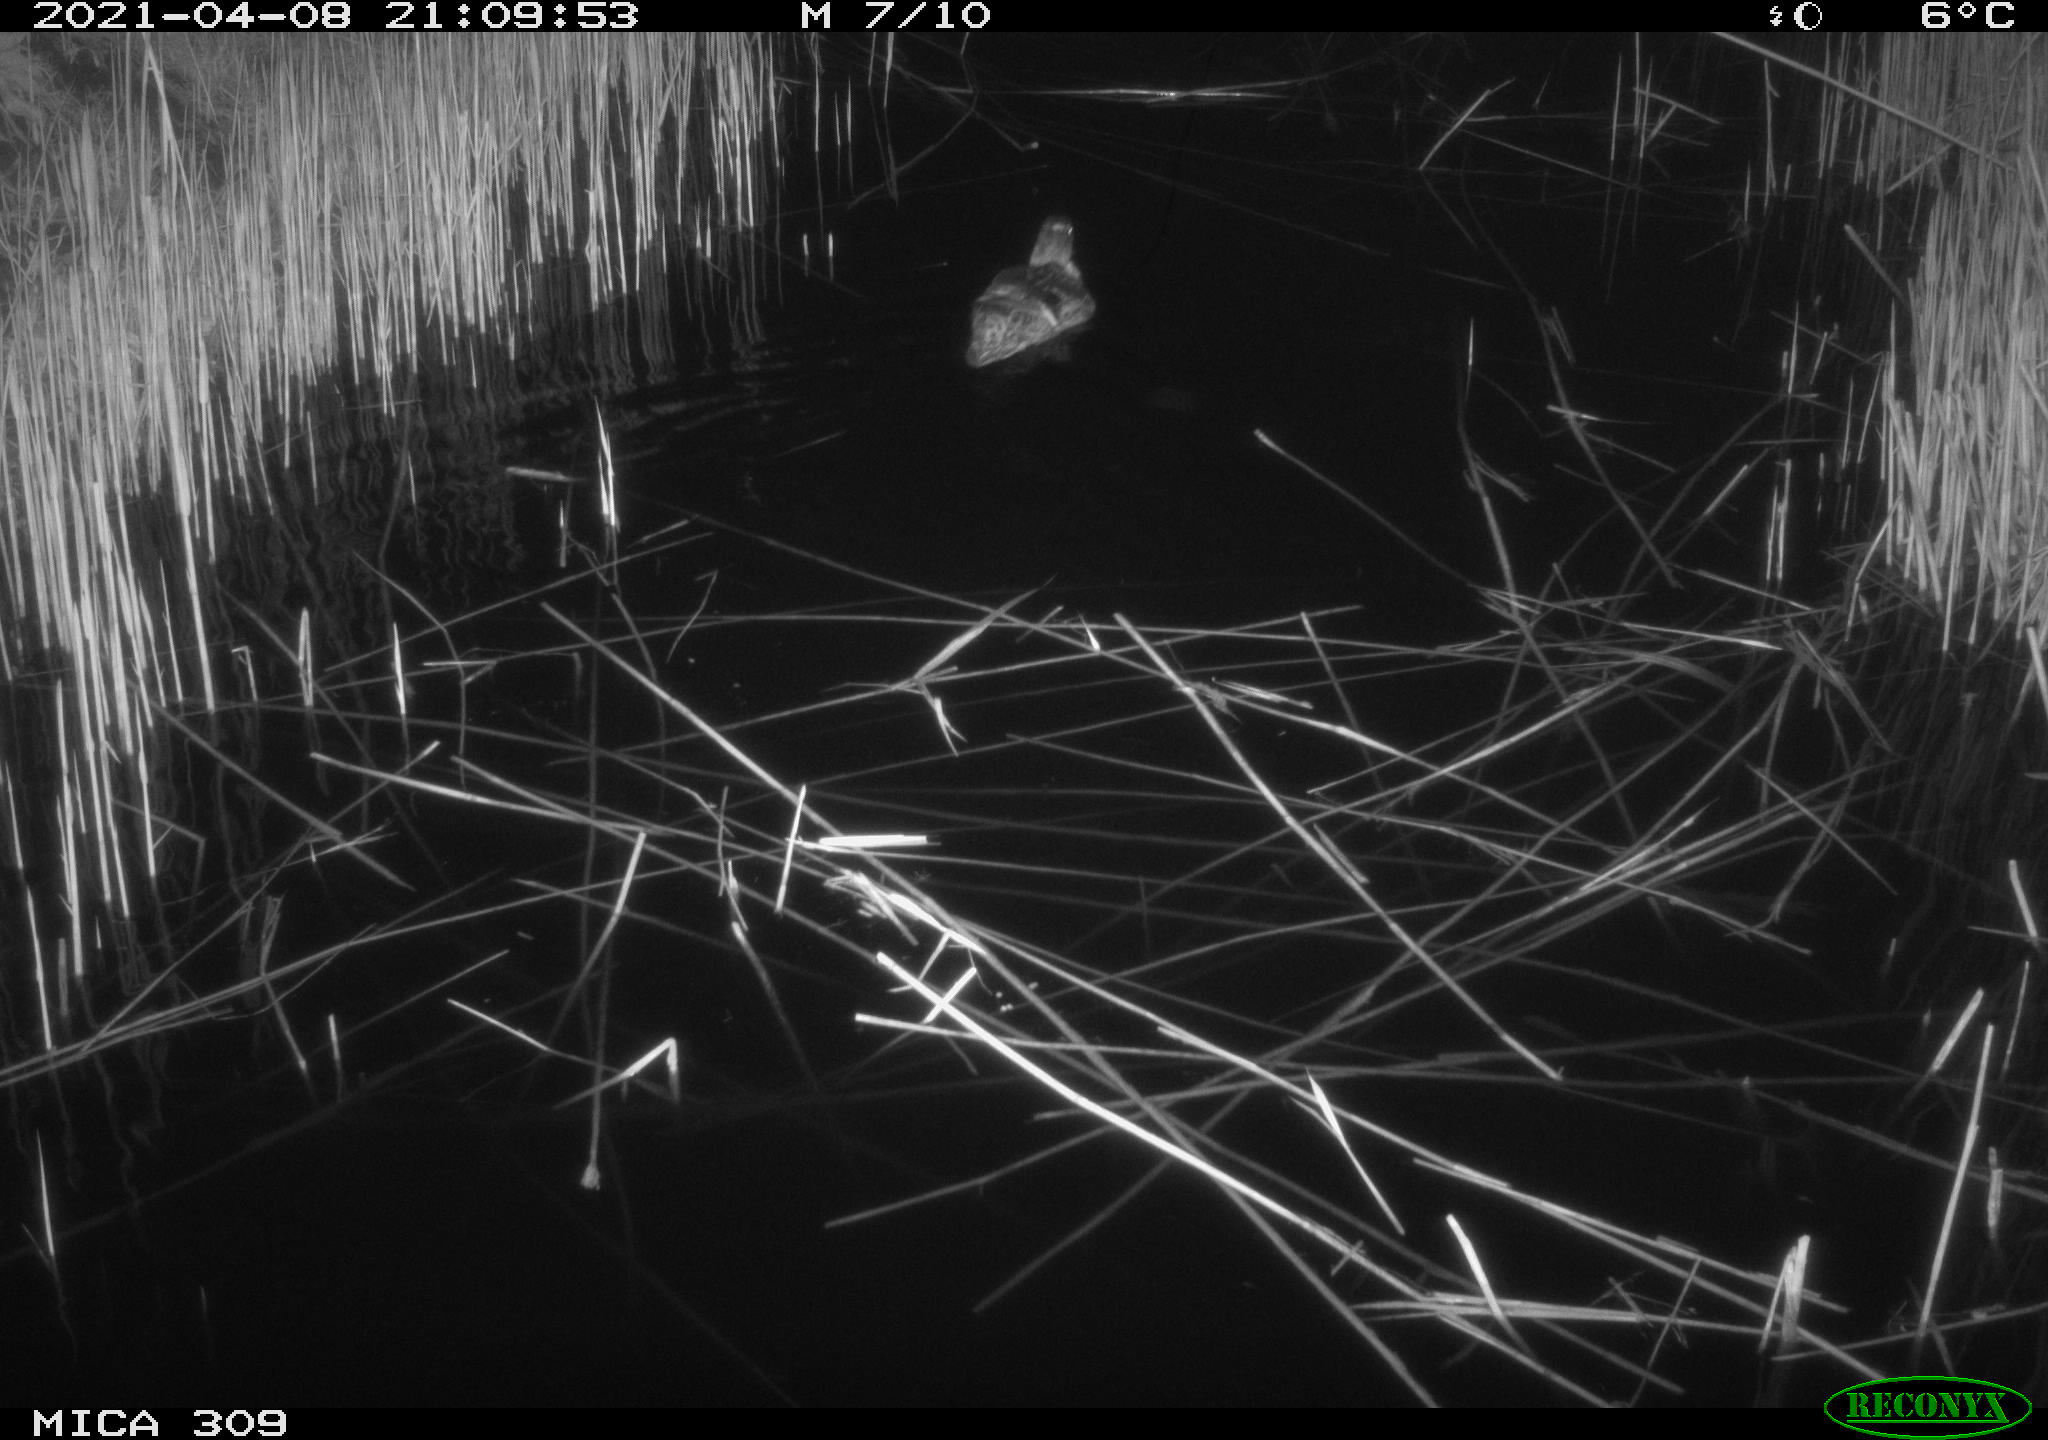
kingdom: Animalia
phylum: Chordata
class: Aves
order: Anseriformes
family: Anatidae
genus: Anas
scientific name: Anas platyrhynchos
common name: Mallard
